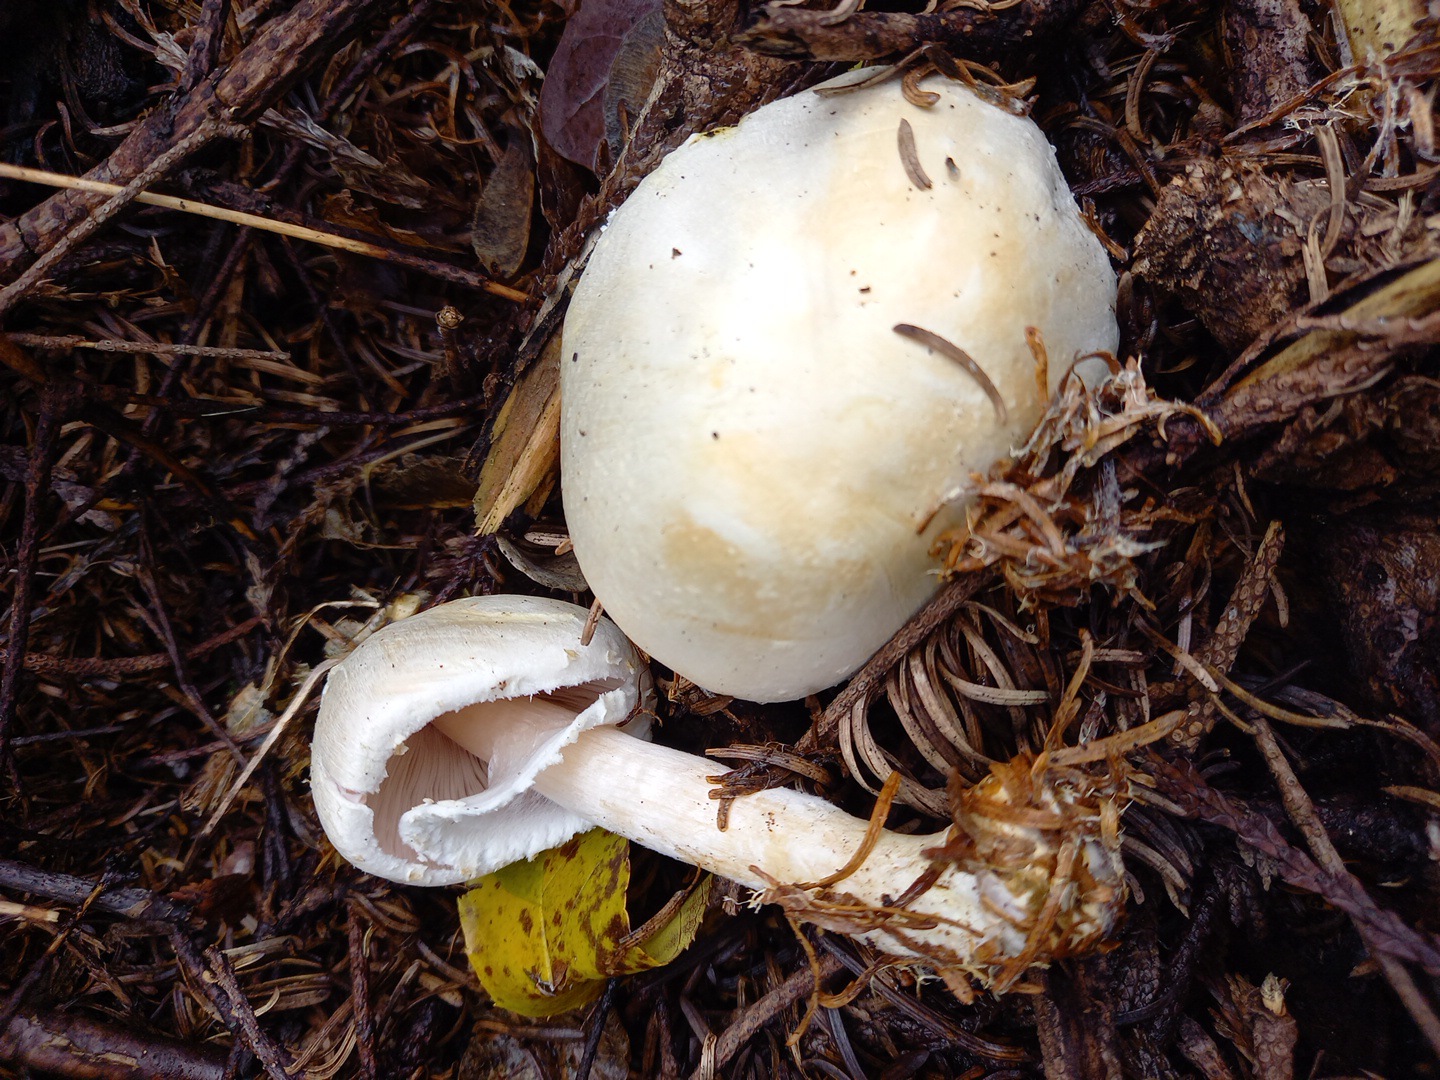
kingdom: Fungi
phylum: Basidiomycota
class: Agaricomycetes
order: Agaricales
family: Agaricaceae
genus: Agaricus
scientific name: Agaricus sylvicola
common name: skiveknoldet champignon
